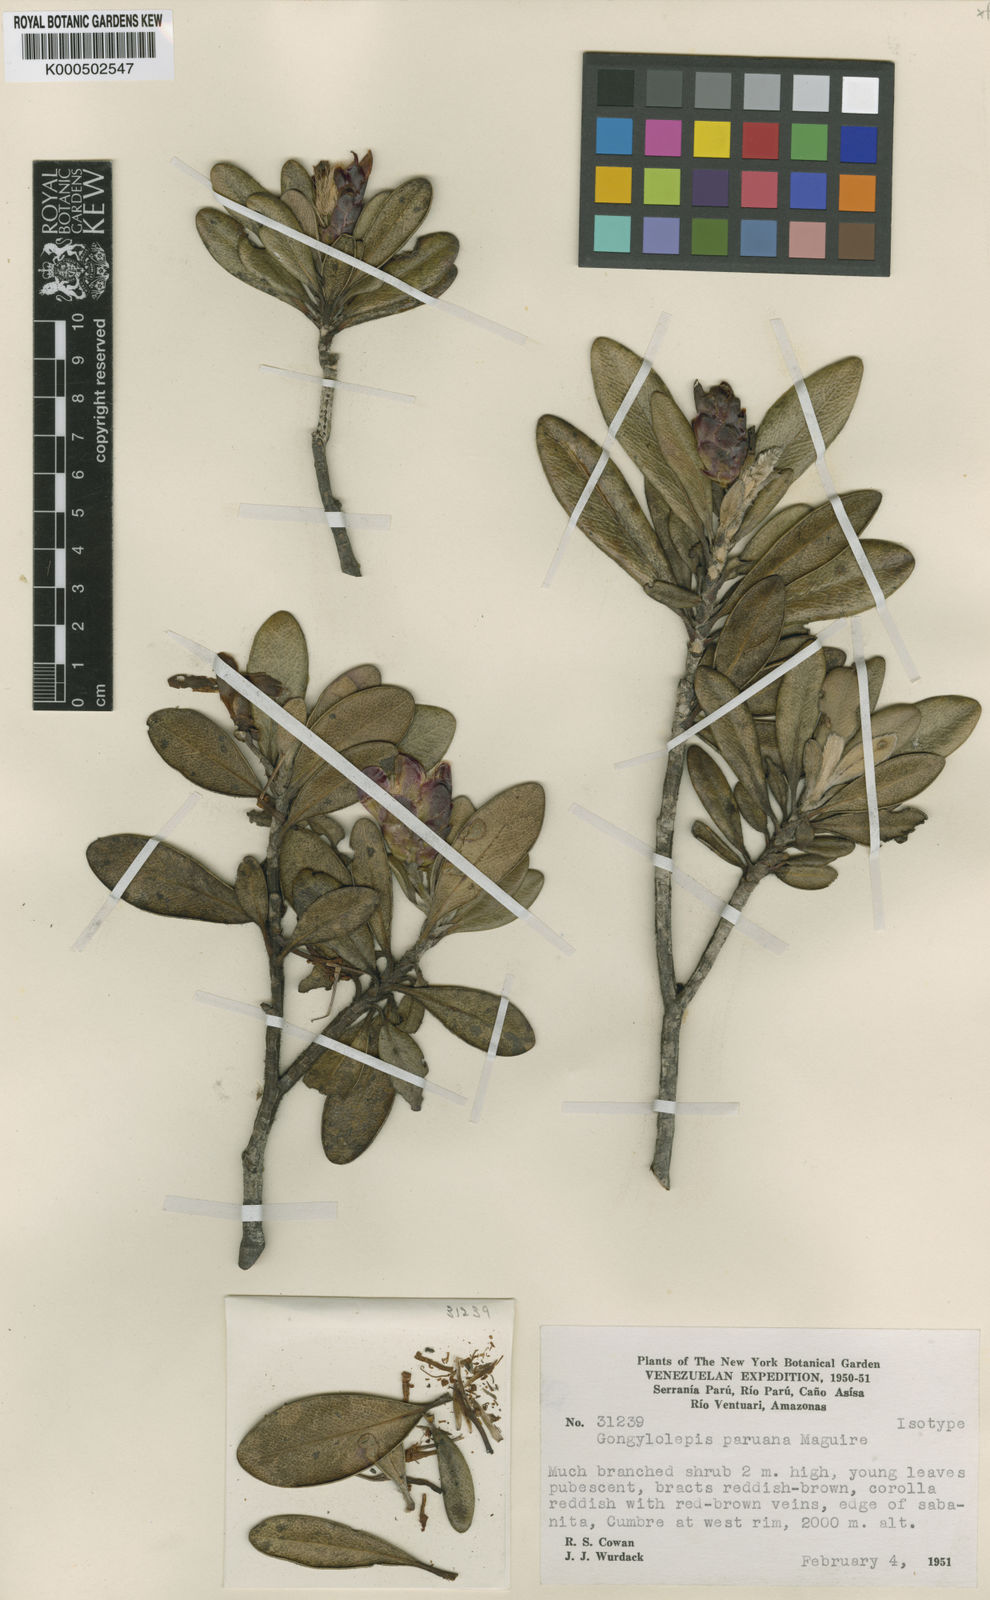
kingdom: Plantae
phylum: Tracheophyta
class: Magnoliopsida
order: Asterales
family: Asteraceae
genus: Gongylolepis
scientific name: Gongylolepis paruana
